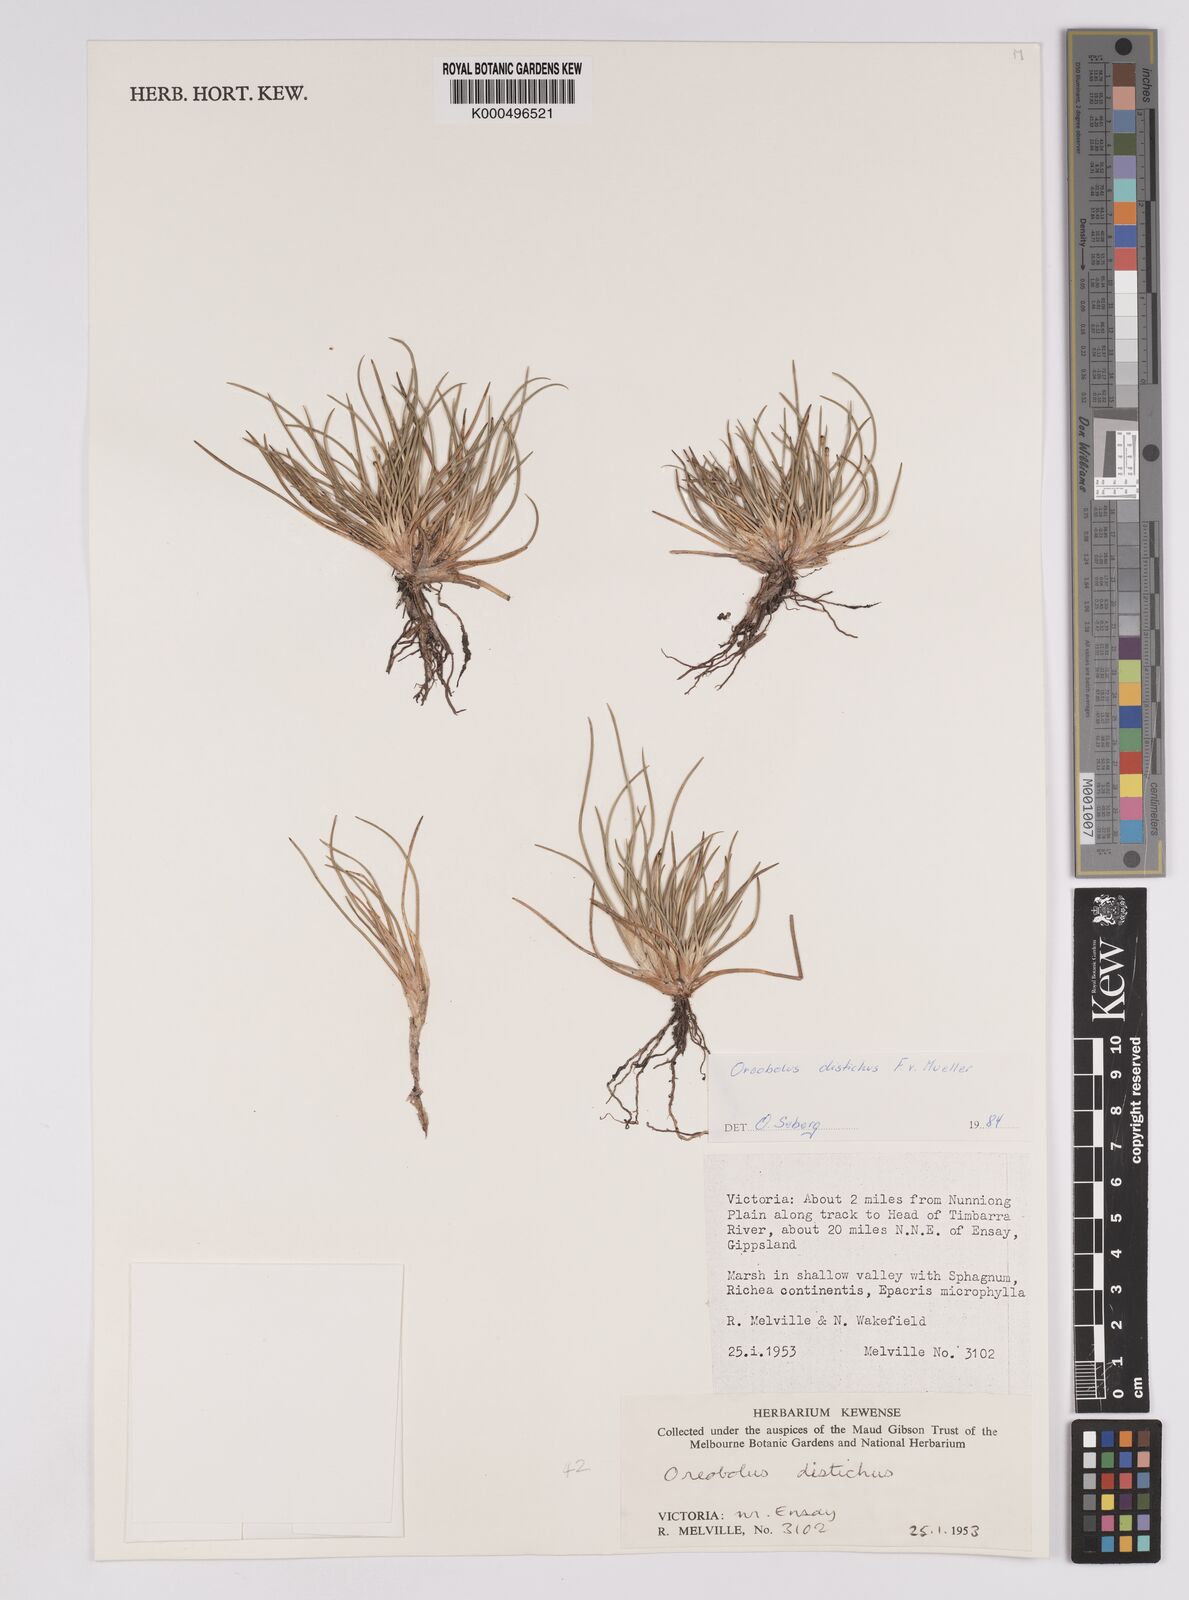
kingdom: Plantae
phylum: Tracheophyta
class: Liliopsida
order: Poales
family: Cyperaceae
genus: Oreobolus
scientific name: Oreobolus
